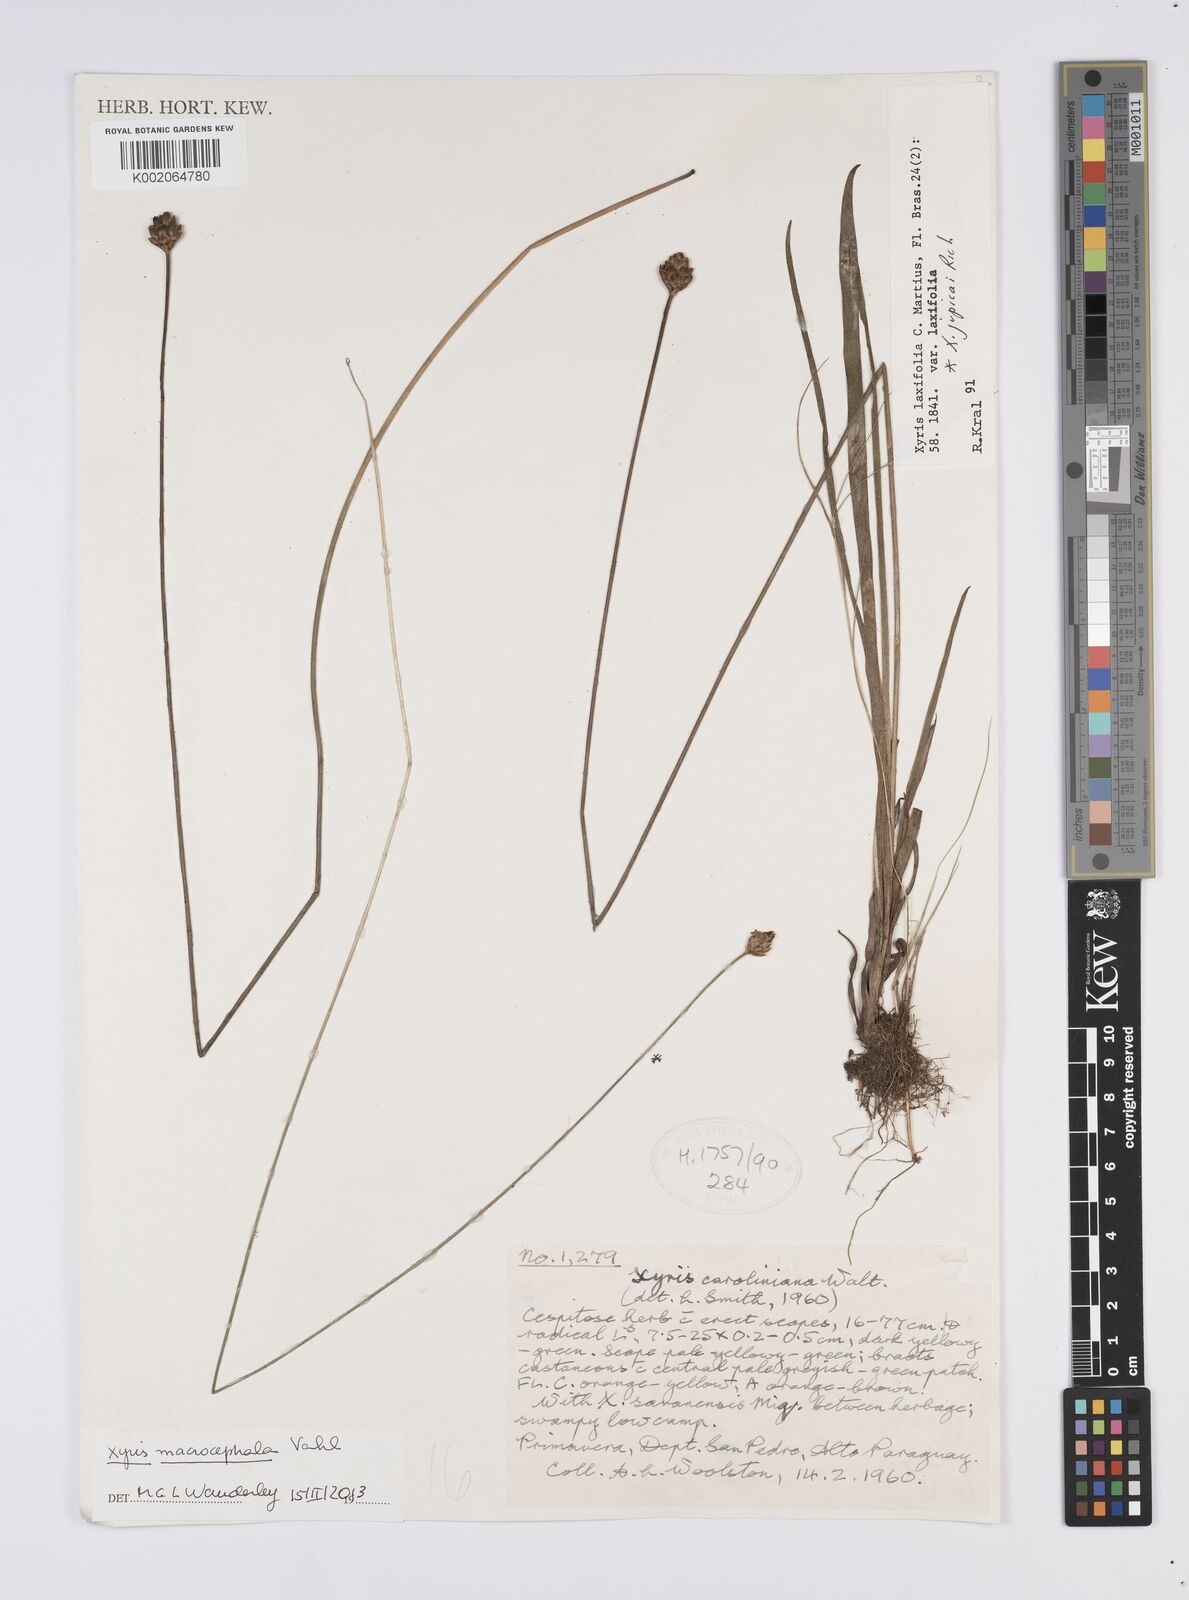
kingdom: Plantae
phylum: Tracheophyta
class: Liliopsida
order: Poales
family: Xyridaceae
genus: Xyris
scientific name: Xyris laxifolia
